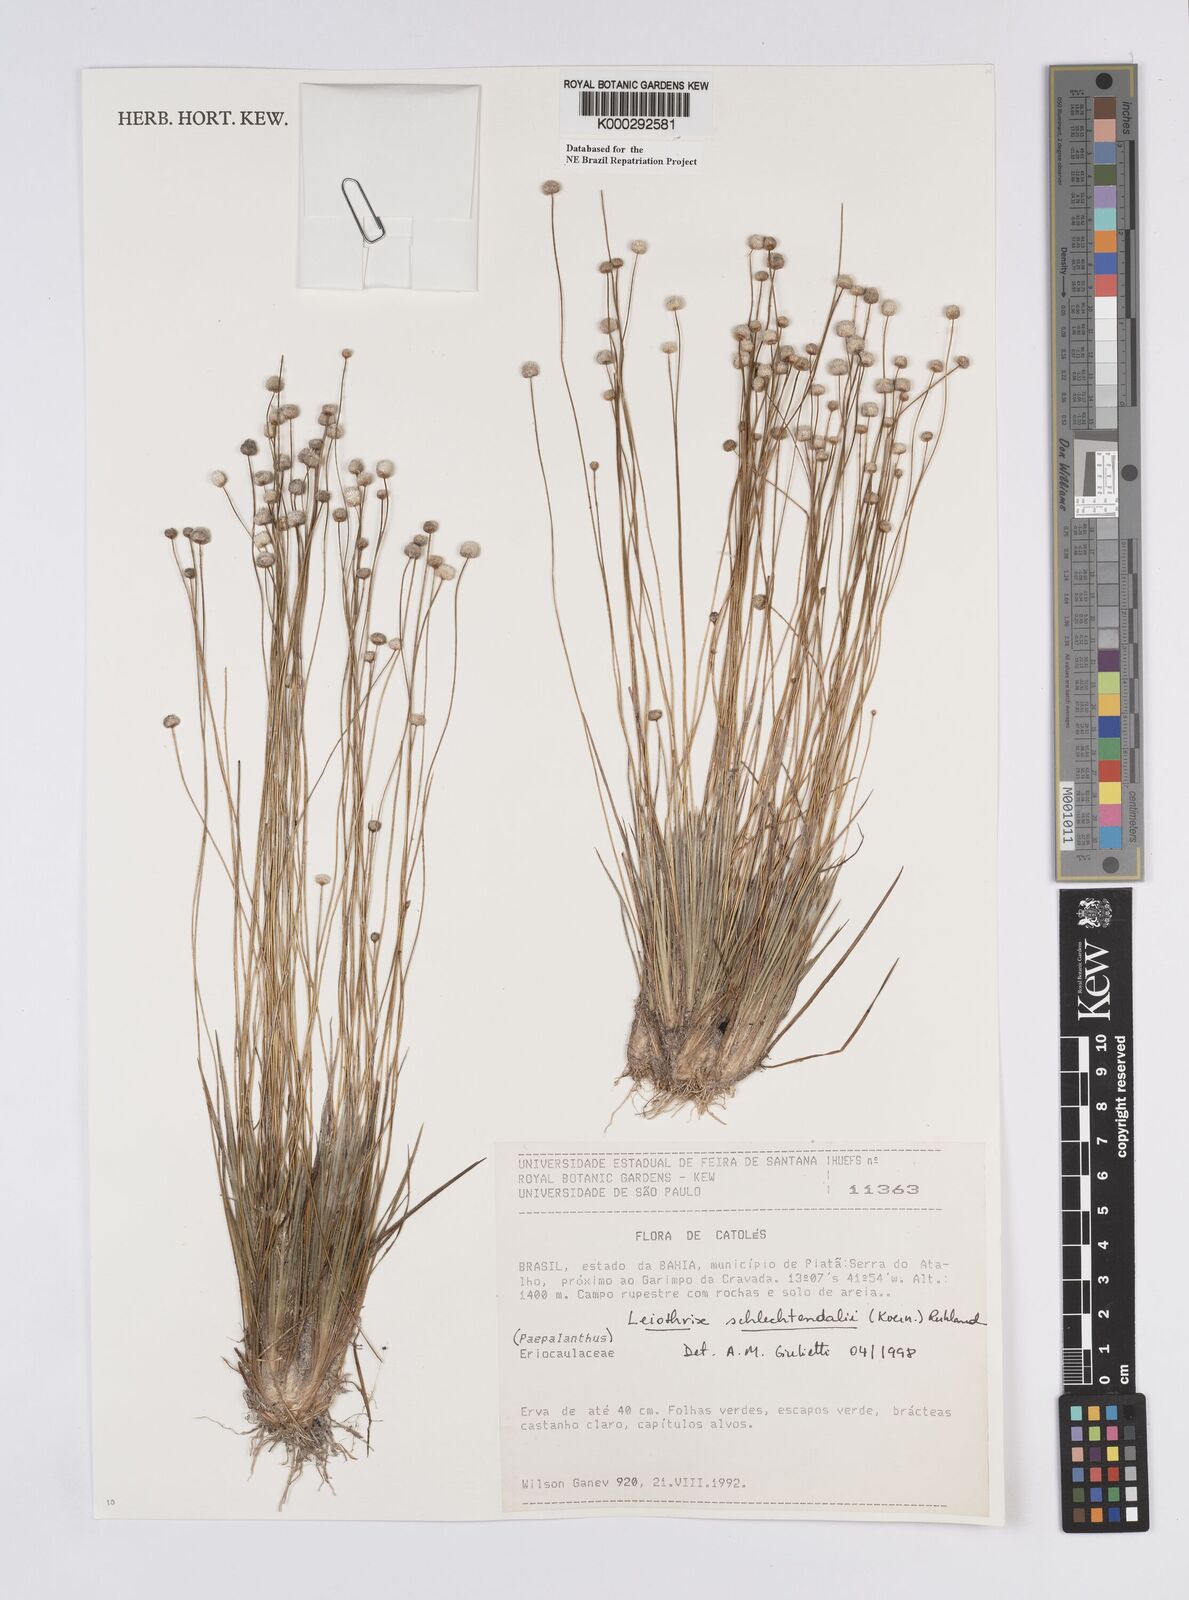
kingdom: Plantae
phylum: Tracheophyta
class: Liliopsida
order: Poales
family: Eriocaulaceae
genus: Leiothrix
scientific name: Leiothrix schlechtendalii
